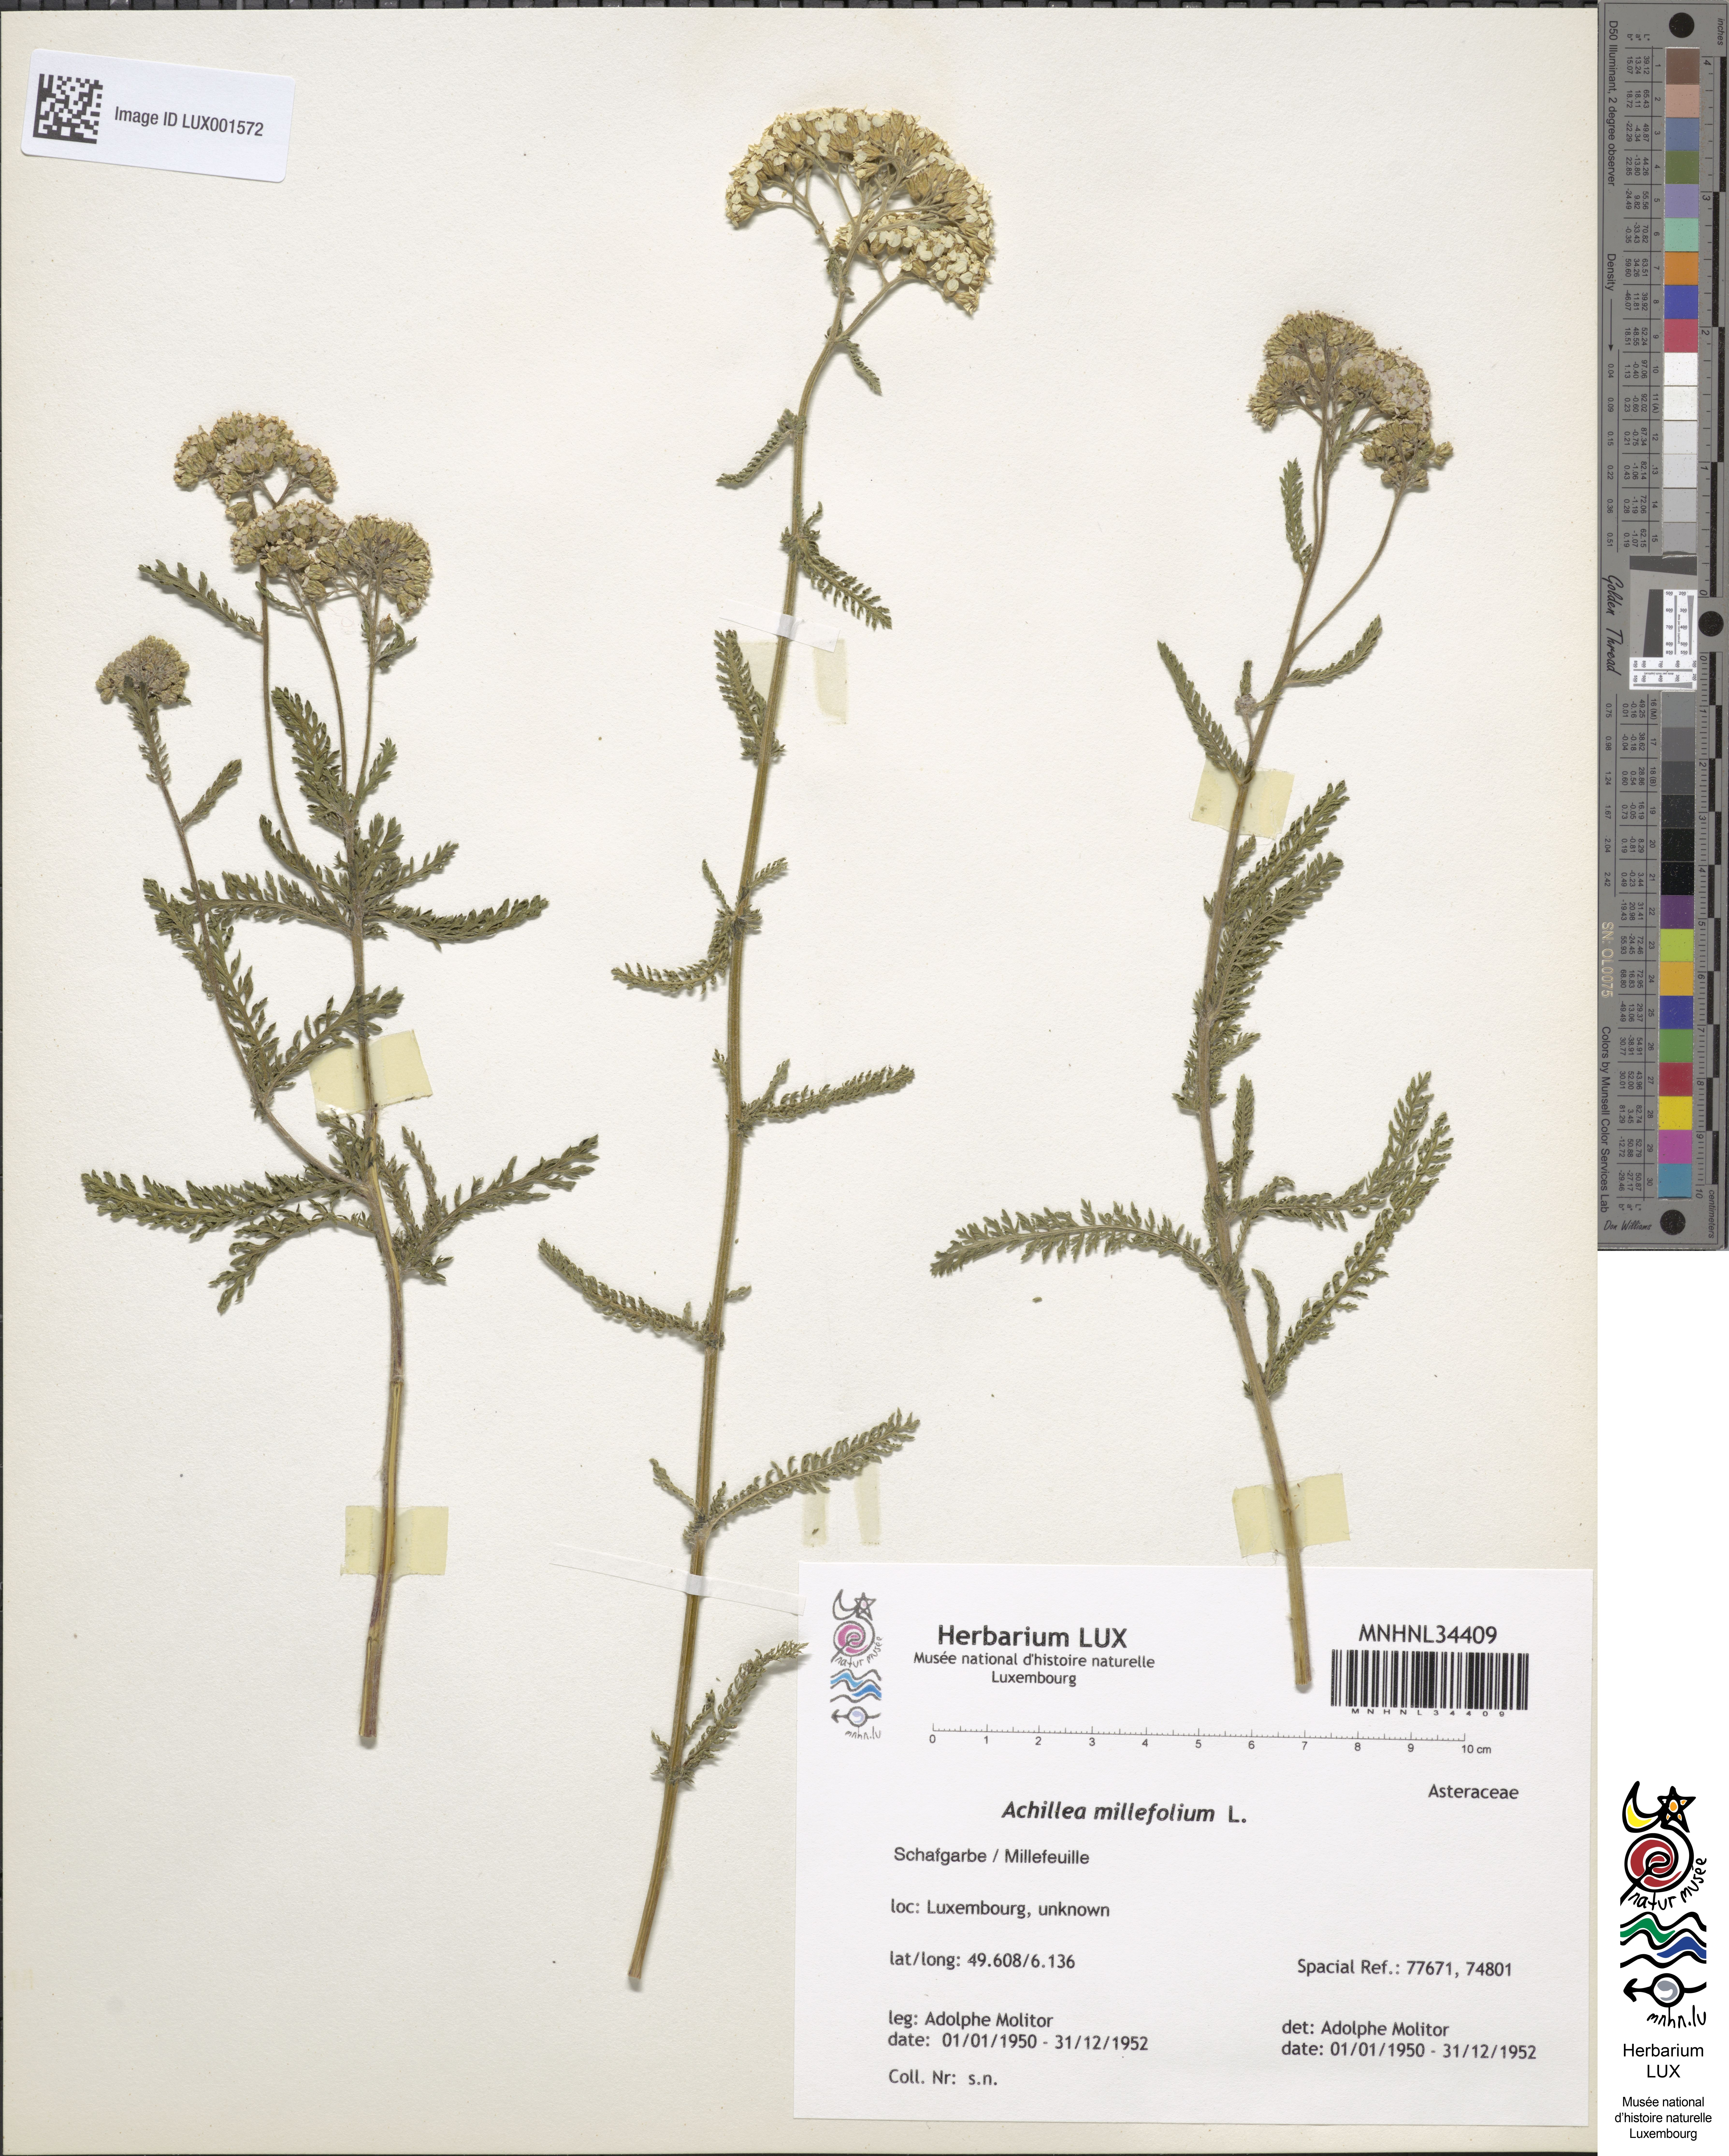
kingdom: Plantae
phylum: Tracheophyta
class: Magnoliopsida
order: Asterales
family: Asteraceae
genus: Achillea
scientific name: Achillea millefolium
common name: Yarrow
